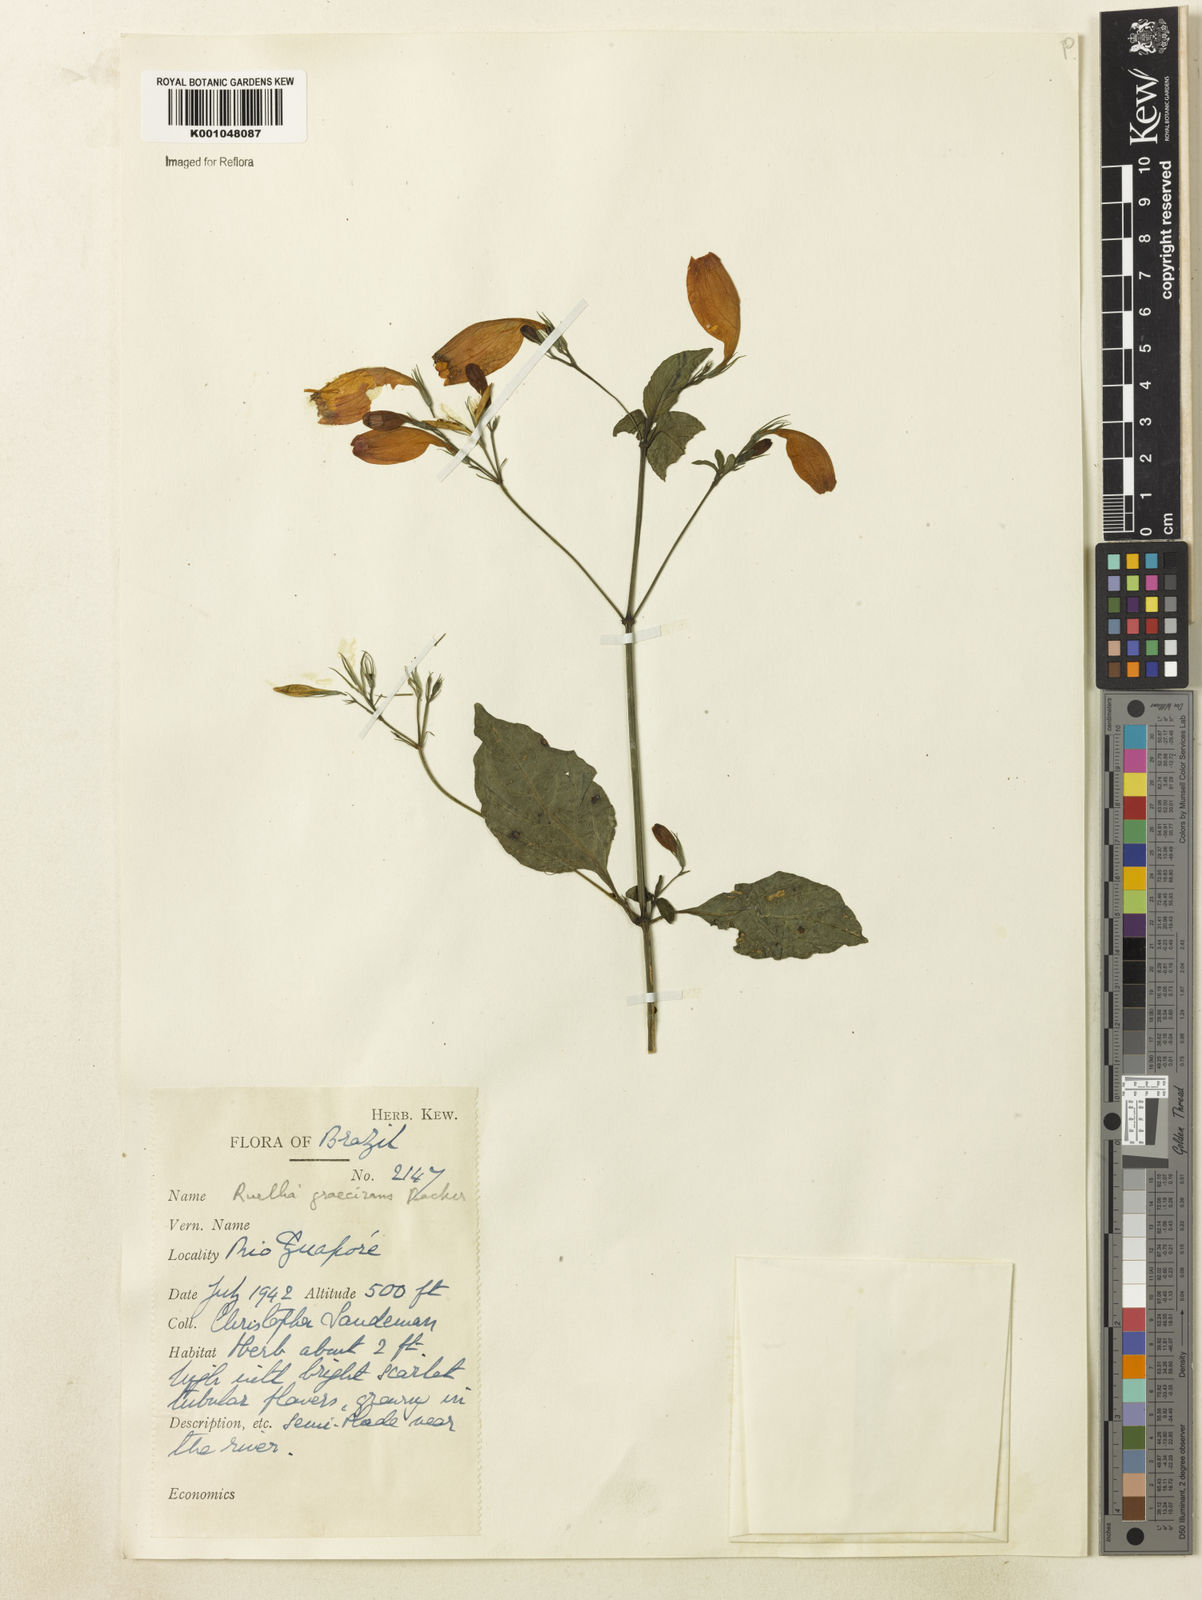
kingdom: Plantae
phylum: Tracheophyta
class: Magnoliopsida
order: Lamiales
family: Acanthaceae
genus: Ruellia
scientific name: Ruellia brevifolia
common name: Tropical wild petunia
